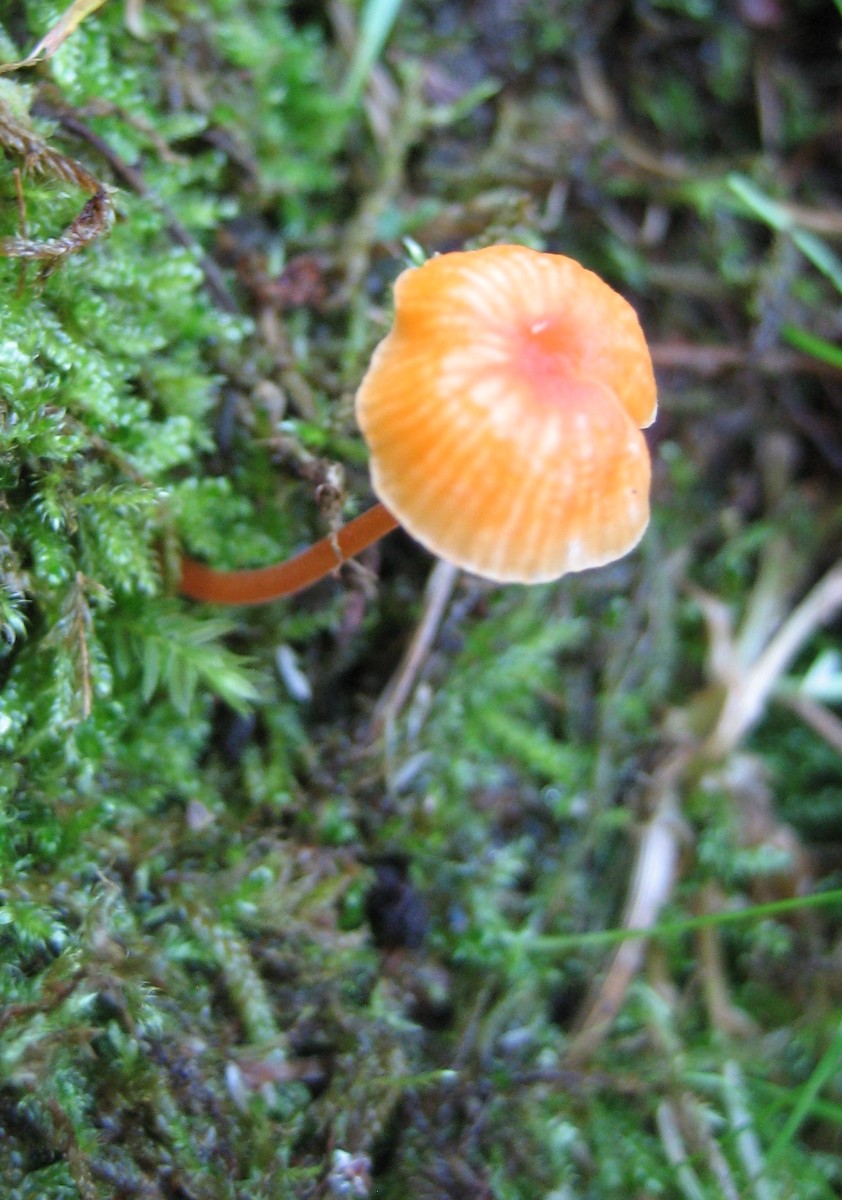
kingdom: Fungi
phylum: Basidiomycota
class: Agaricomycetes
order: Hymenochaetales
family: Rickenellaceae
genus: Rickenella
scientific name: Rickenella fibula
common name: orange mosnavlehat
